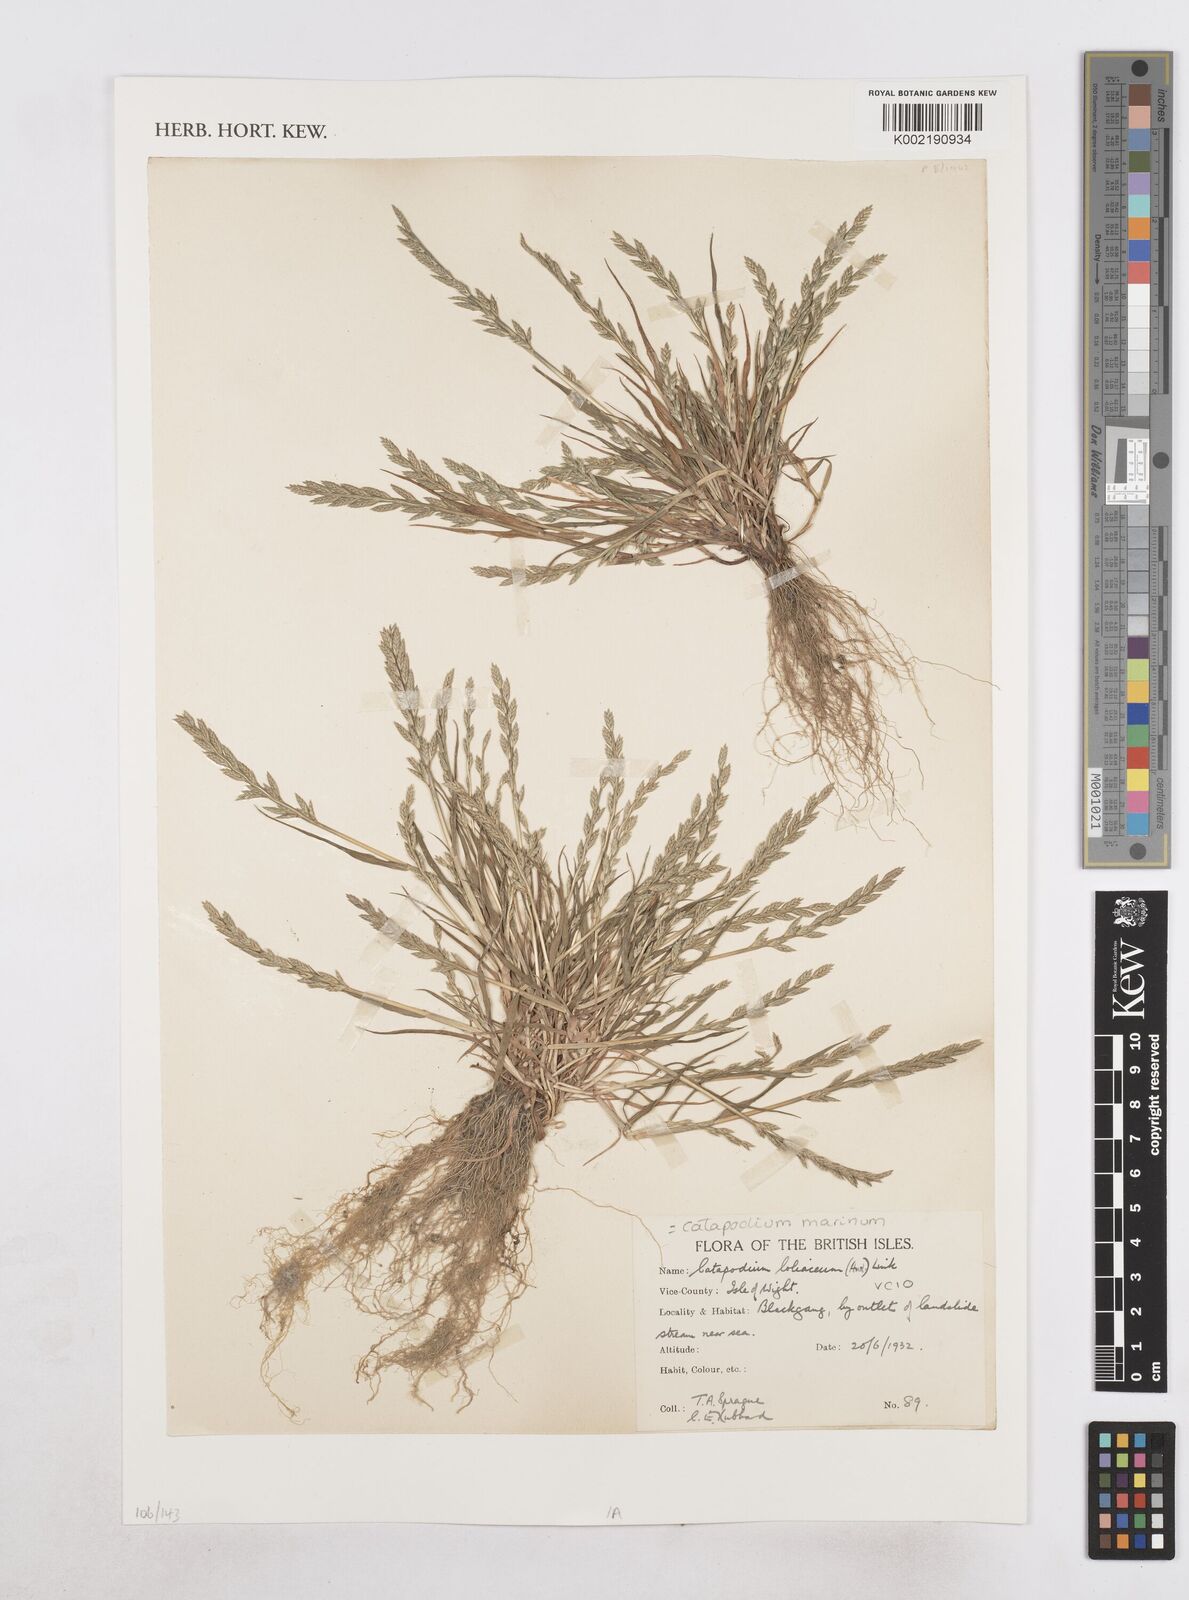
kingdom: Plantae
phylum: Tracheophyta
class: Liliopsida
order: Poales
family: Poaceae
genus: Catapodium
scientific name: Catapodium marinum
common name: Sea fern-grass
